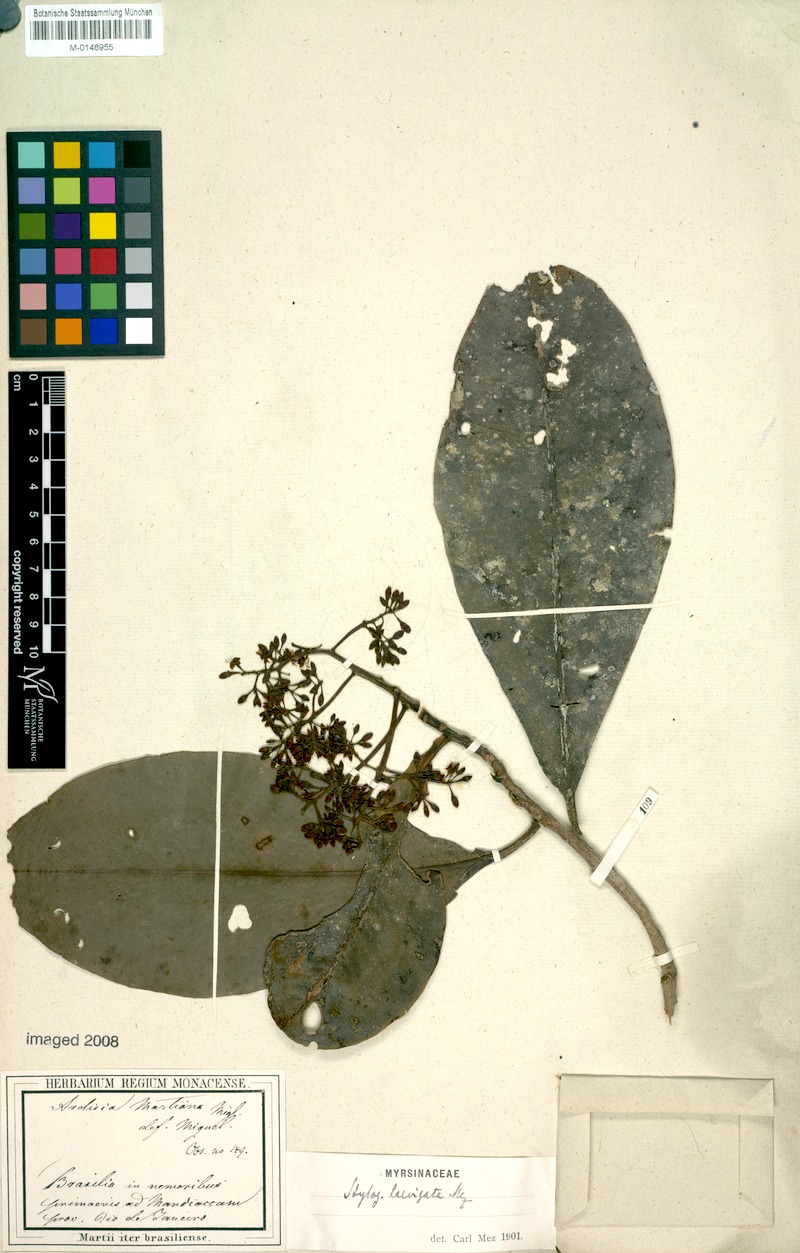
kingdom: Plantae
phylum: Tracheophyta
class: Magnoliopsida
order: Ericales
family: Primulaceae
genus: Stylogyne
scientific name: Stylogyne lhotzkyana
